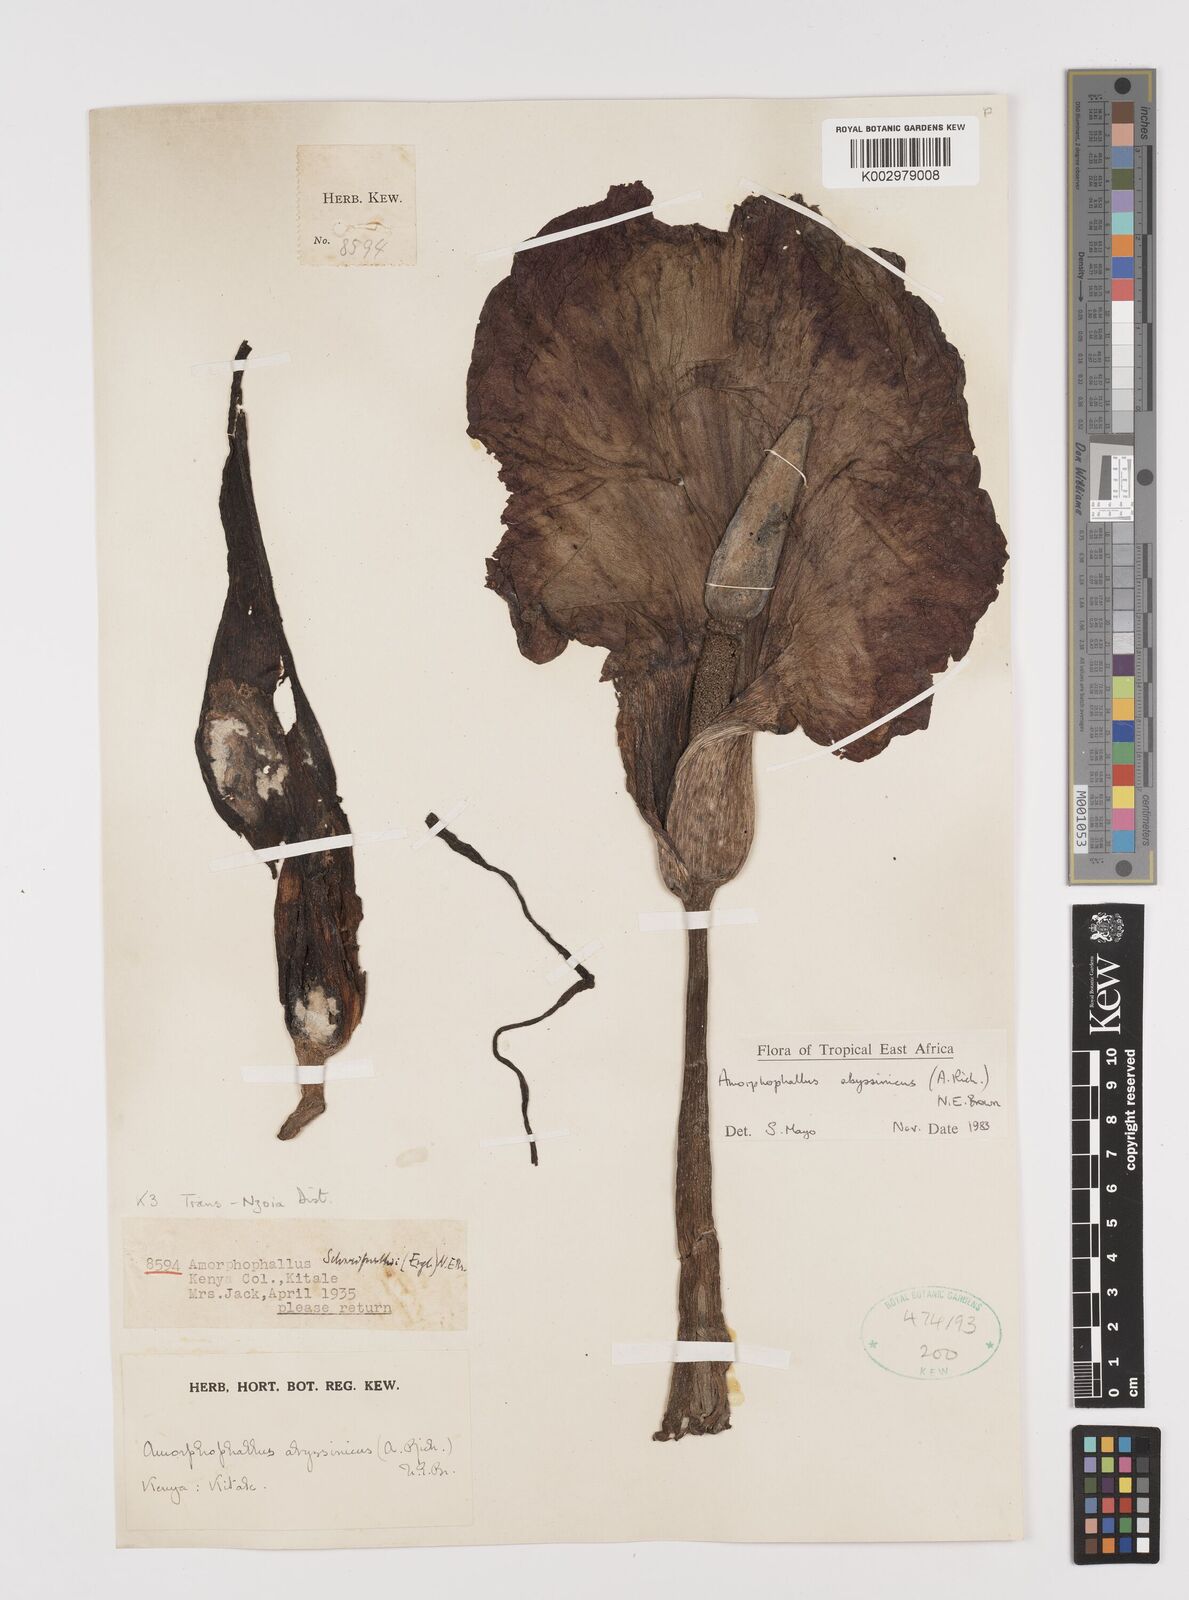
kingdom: Plantae
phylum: Tracheophyta
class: Liliopsida
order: Alismatales
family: Araceae
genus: Amorphophallus
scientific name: Amorphophallus abyssinicus
